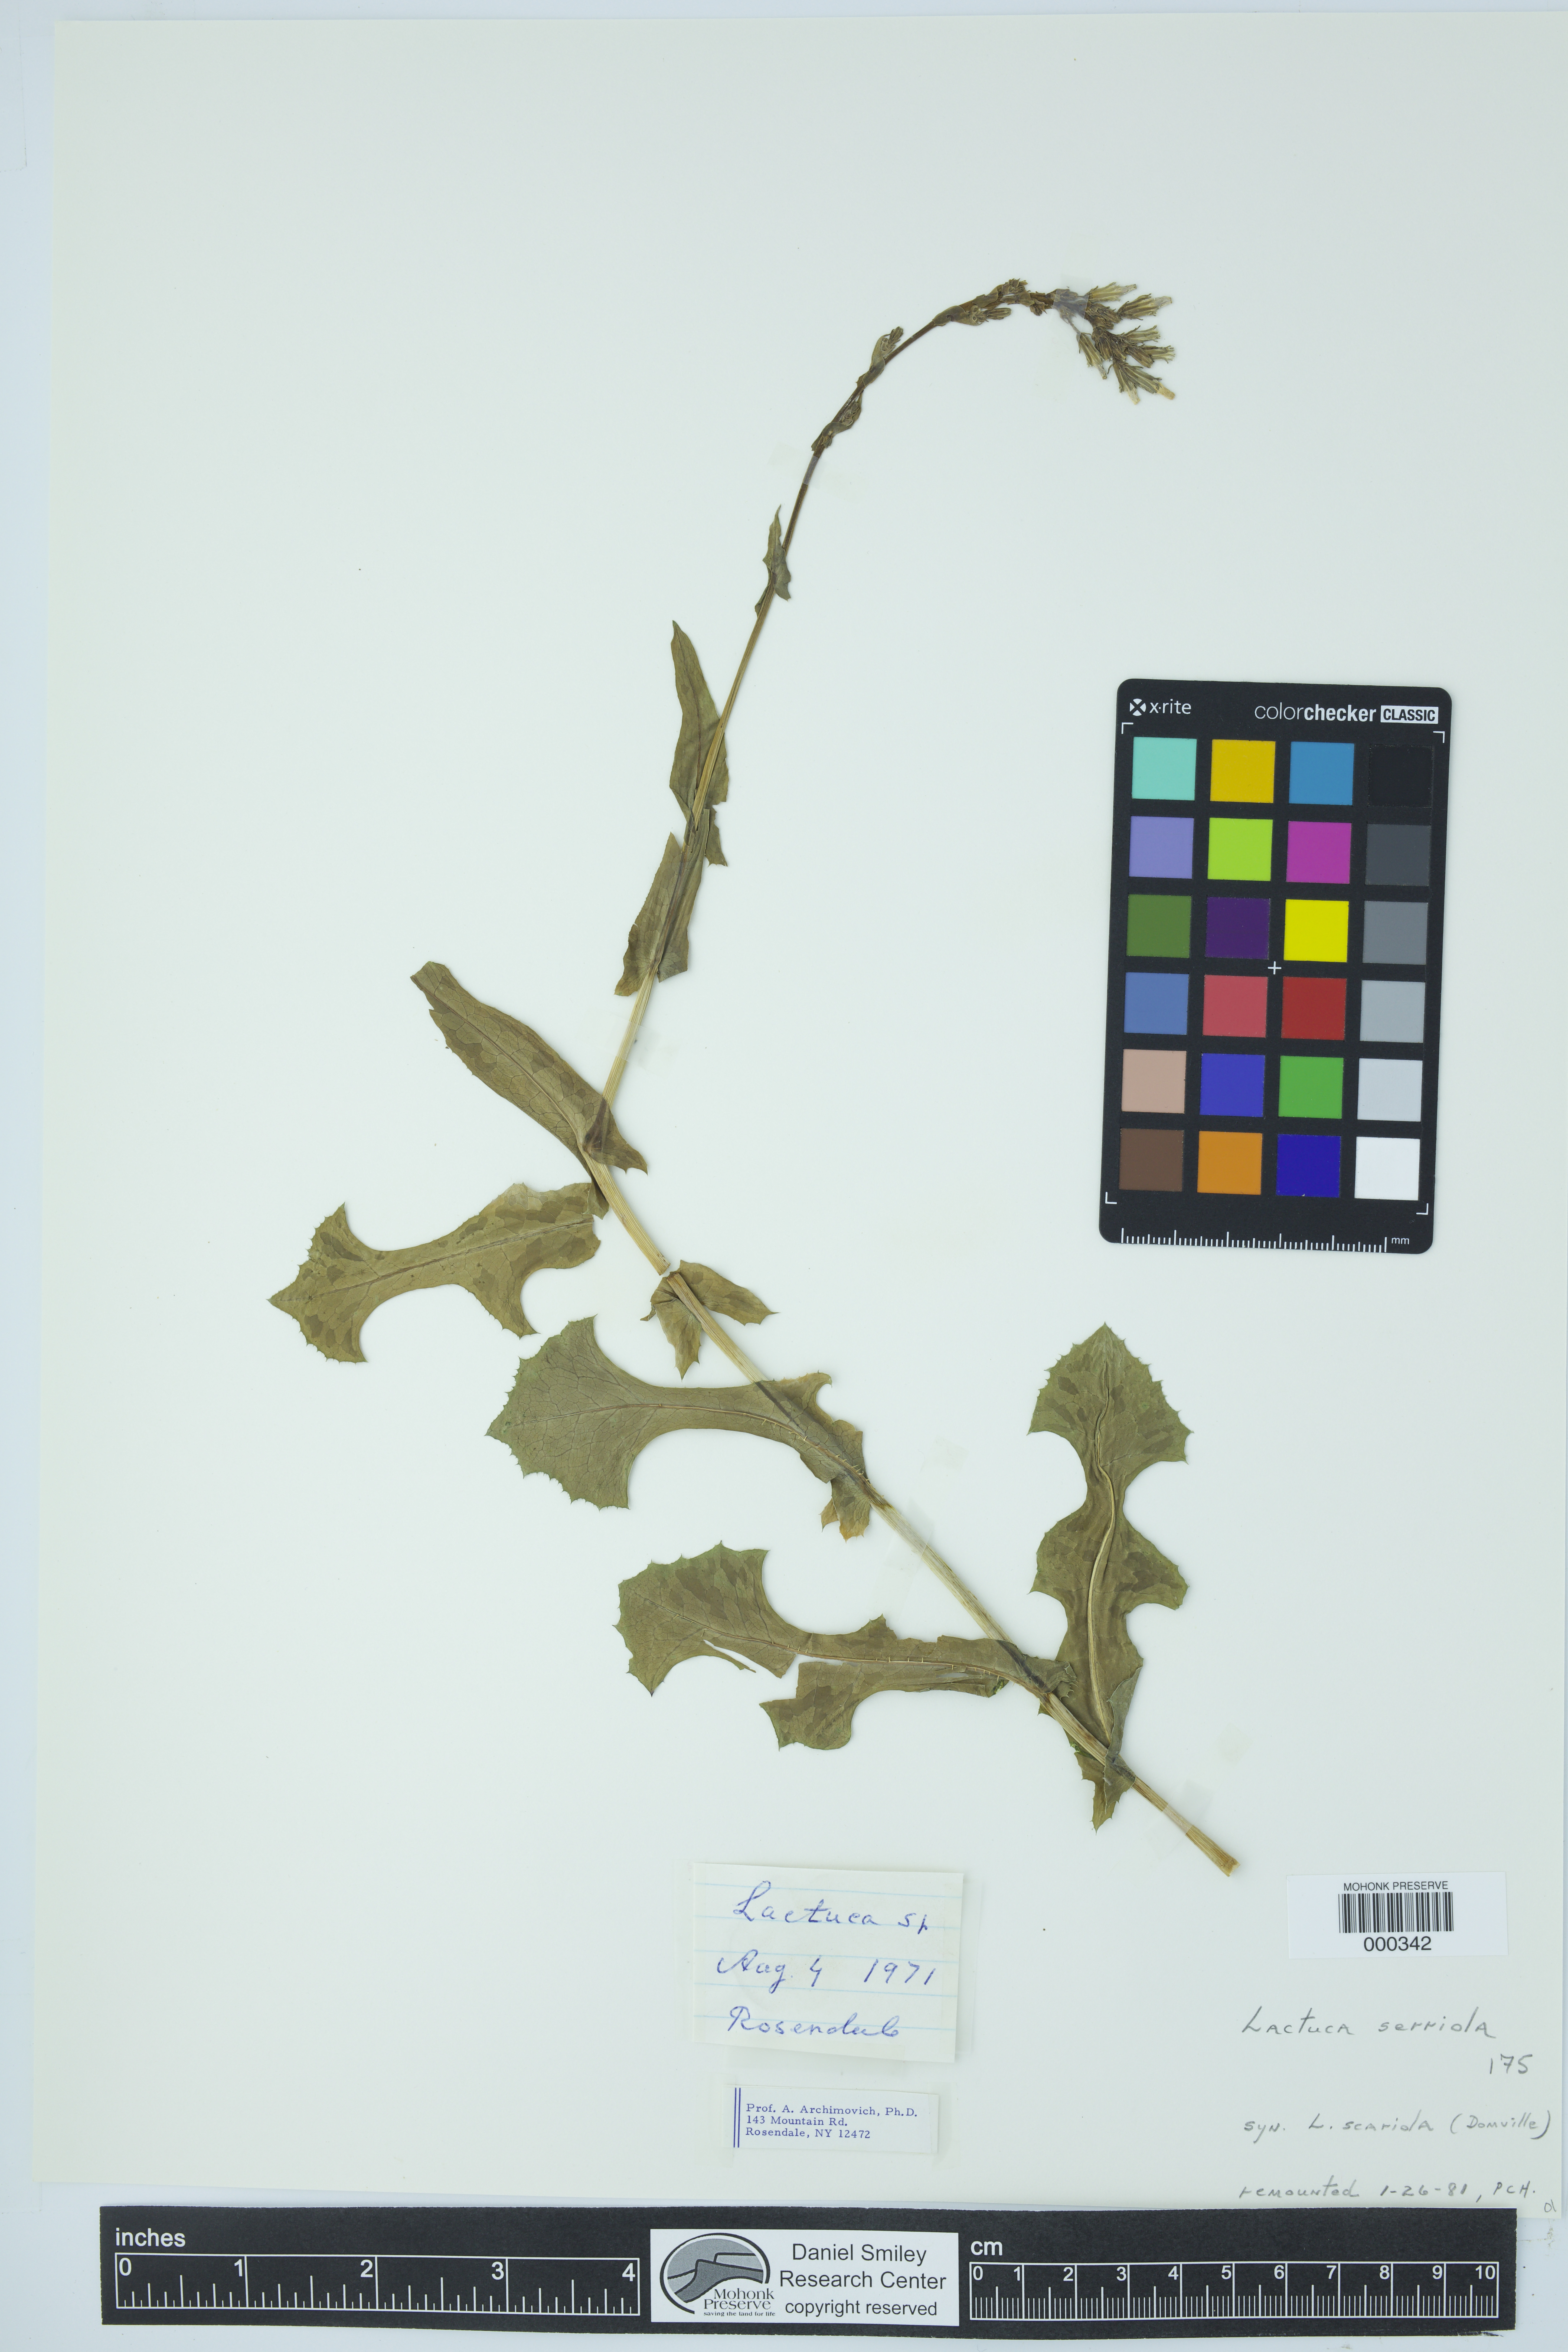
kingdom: Plantae
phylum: Tracheophyta
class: Magnoliopsida
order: Asterales
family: Asteraceae
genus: Lactuca
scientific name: Lactuca serriola
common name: Prickly lettuce
